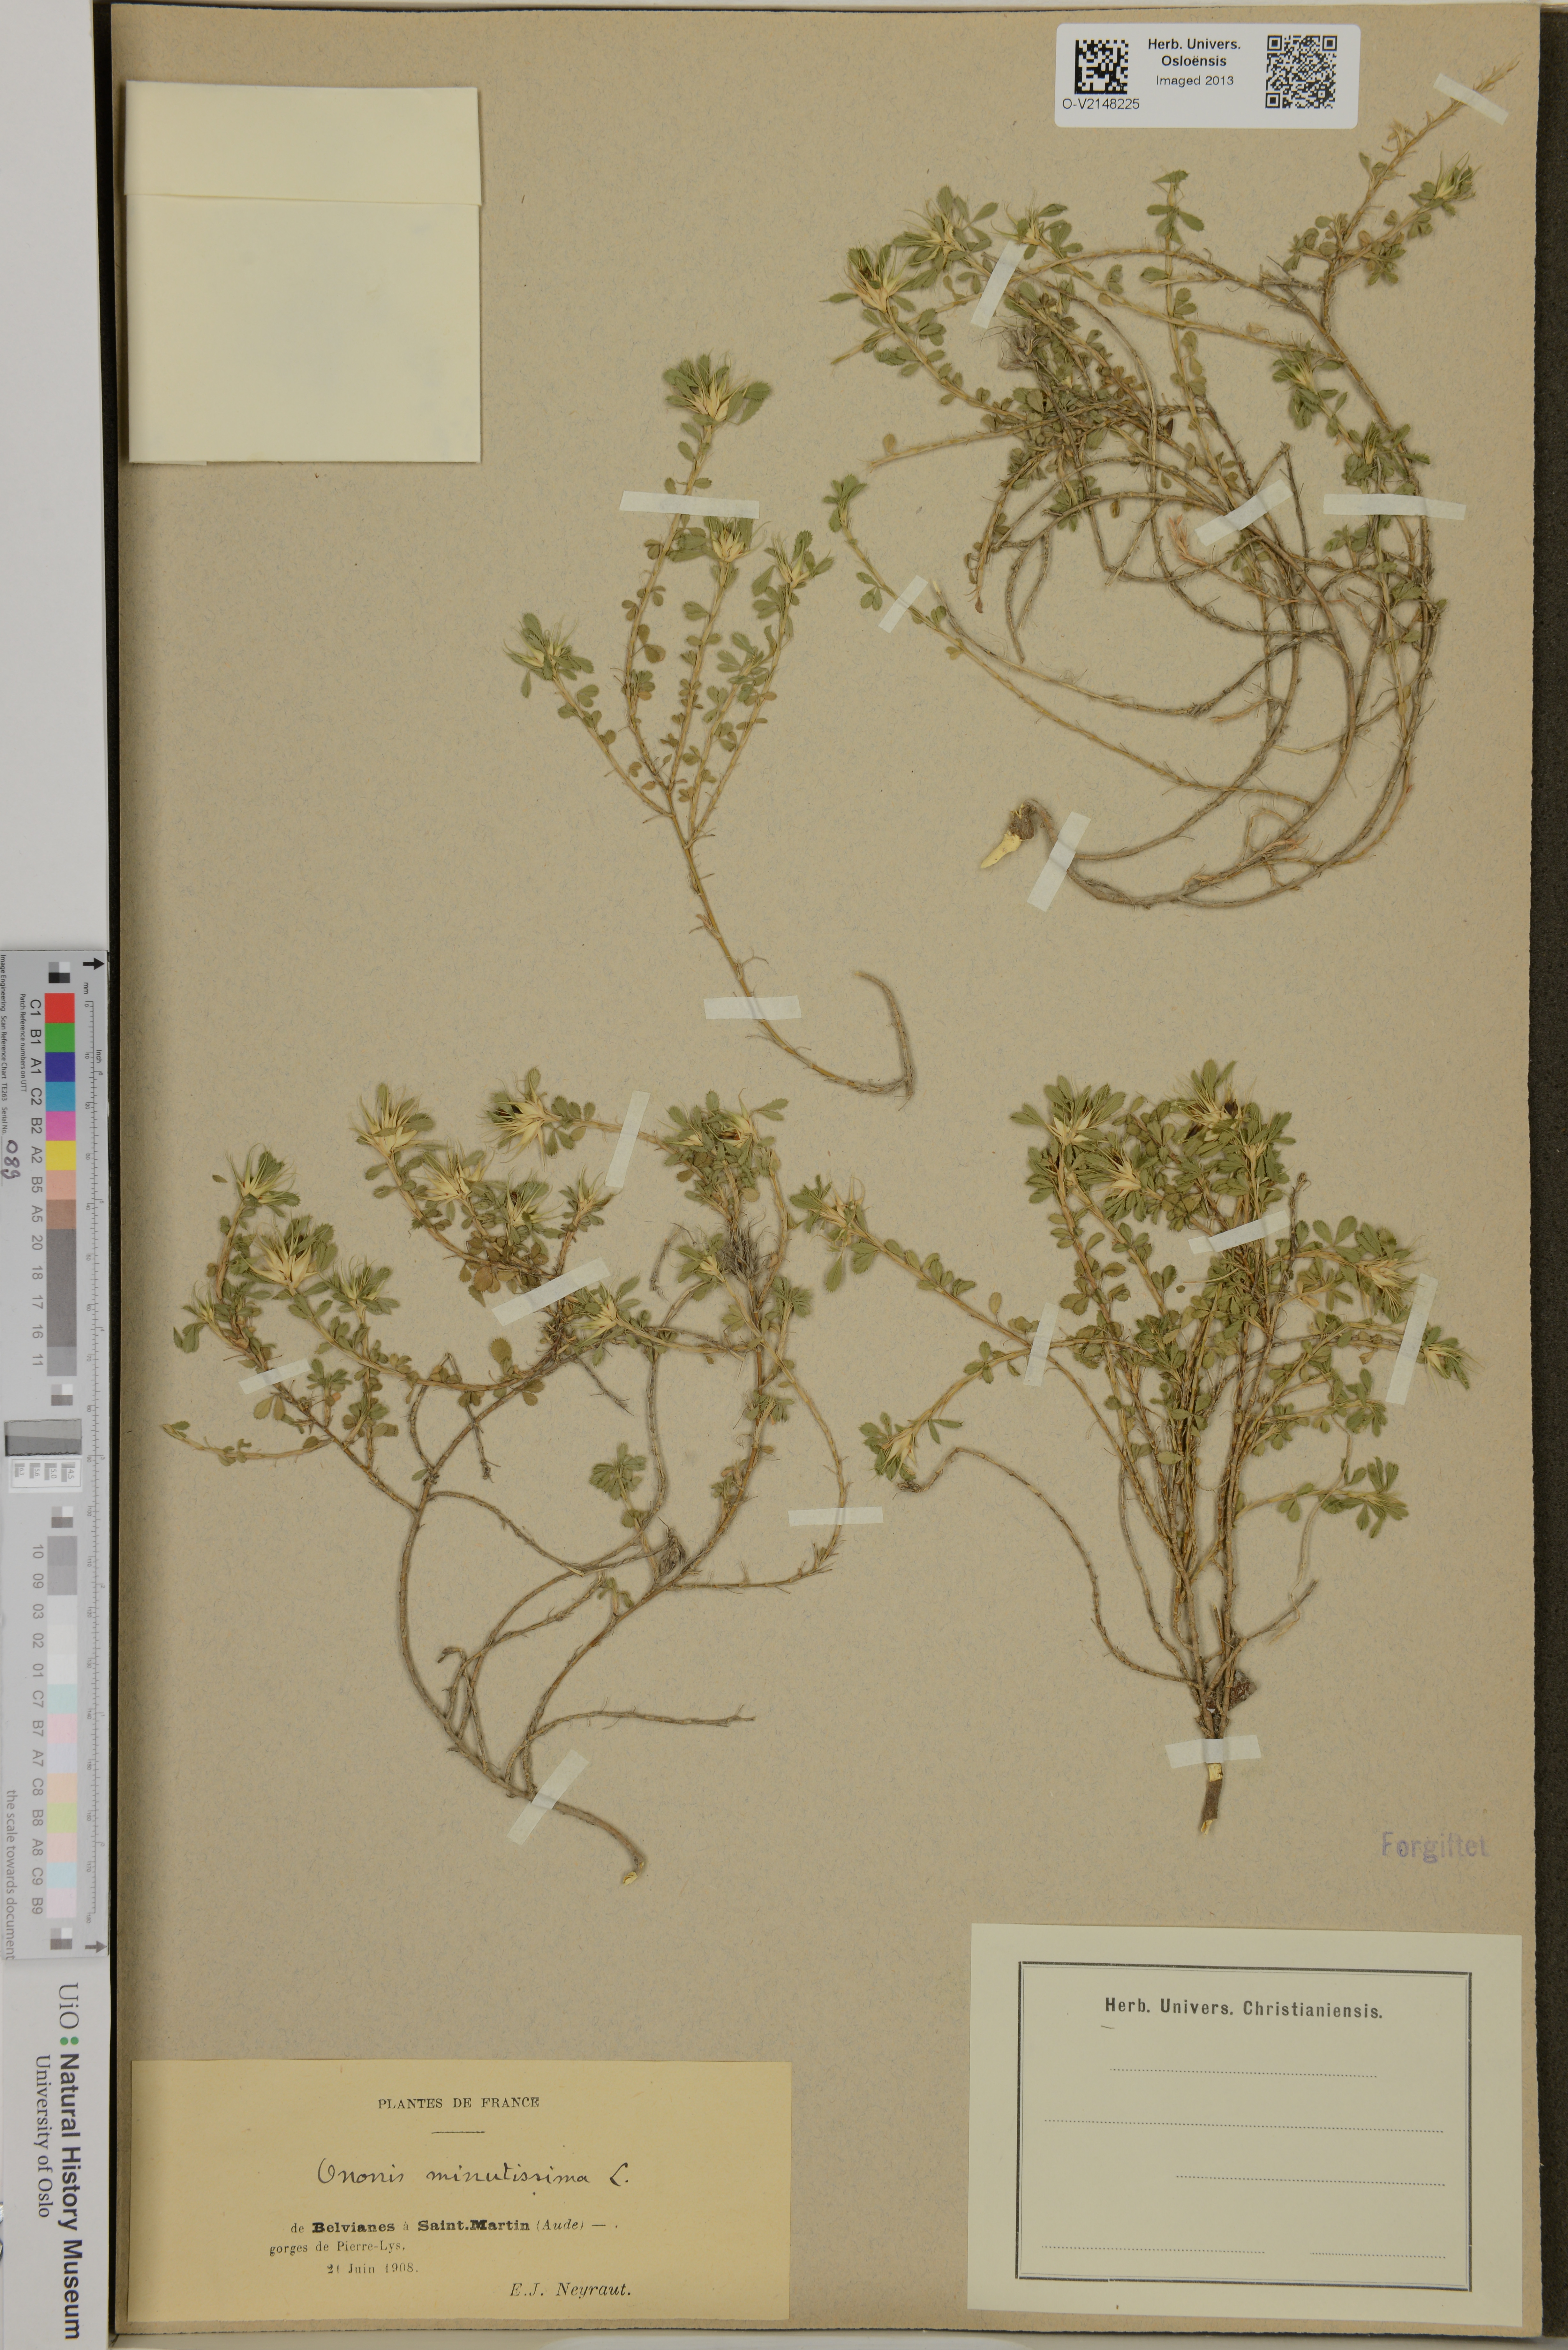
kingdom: Plantae
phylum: Tracheophyta
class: Magnoliopsida
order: Fabales
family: Fabaceae
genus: Ononis
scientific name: Ononis minutissima
